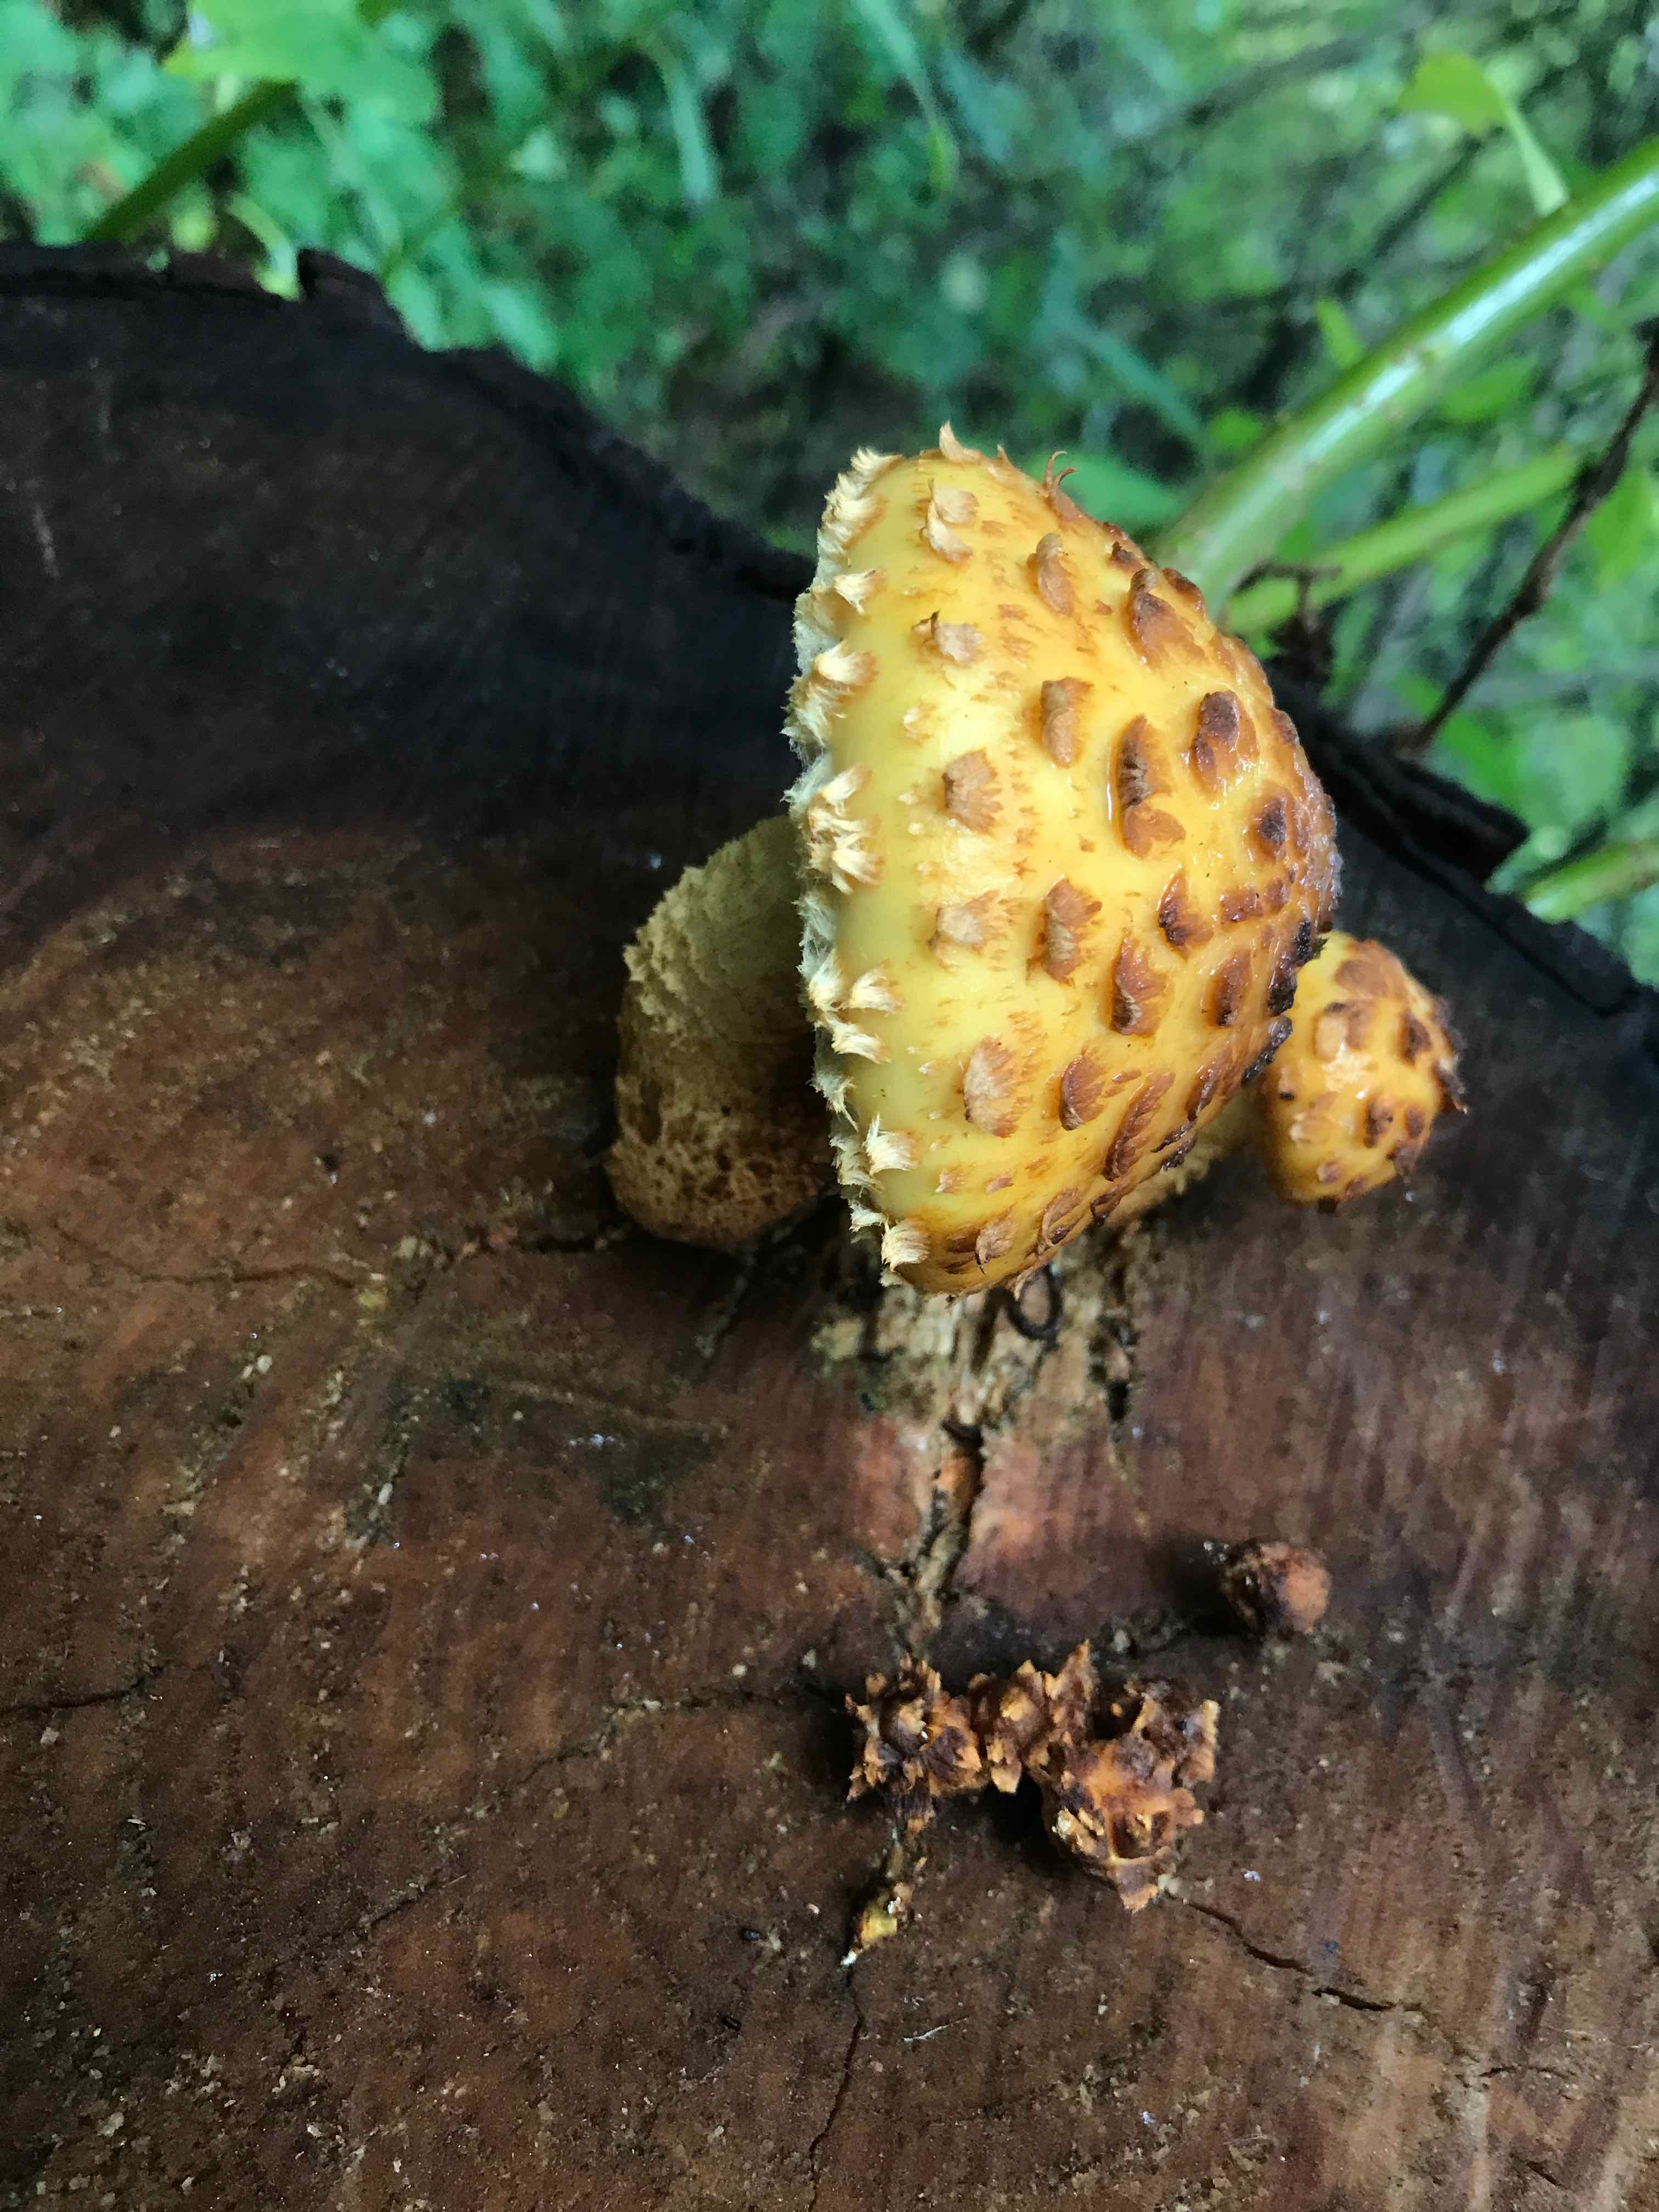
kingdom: Fungi
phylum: Basidiomycota
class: Agaricomycetes
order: Agaricales
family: Strophariaceae
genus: Pholiota
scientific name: Pholiota aurivella
